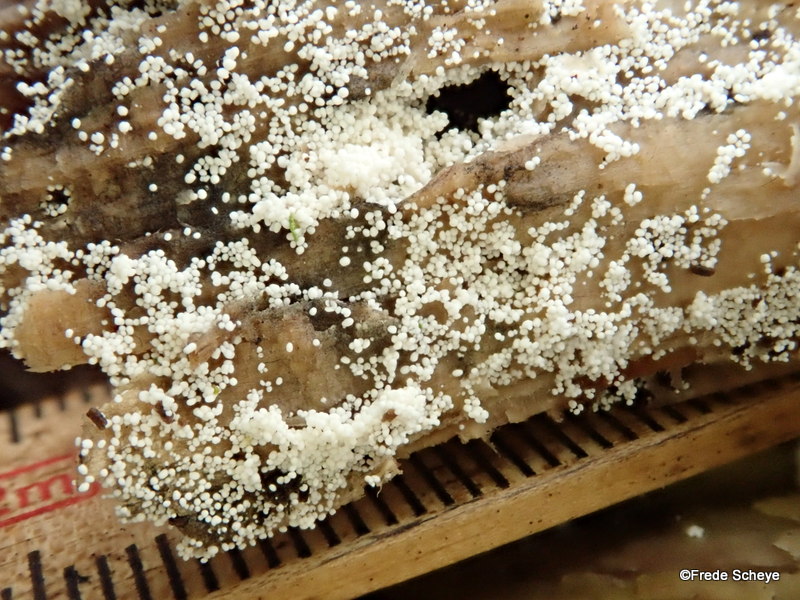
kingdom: Fungi
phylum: Basidiomycota
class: Agaricomycetes
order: Polyporales
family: Meruliaceae
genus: Bulbillomyces
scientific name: Bulbillomyces farinosus
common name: æg-kalkskind
